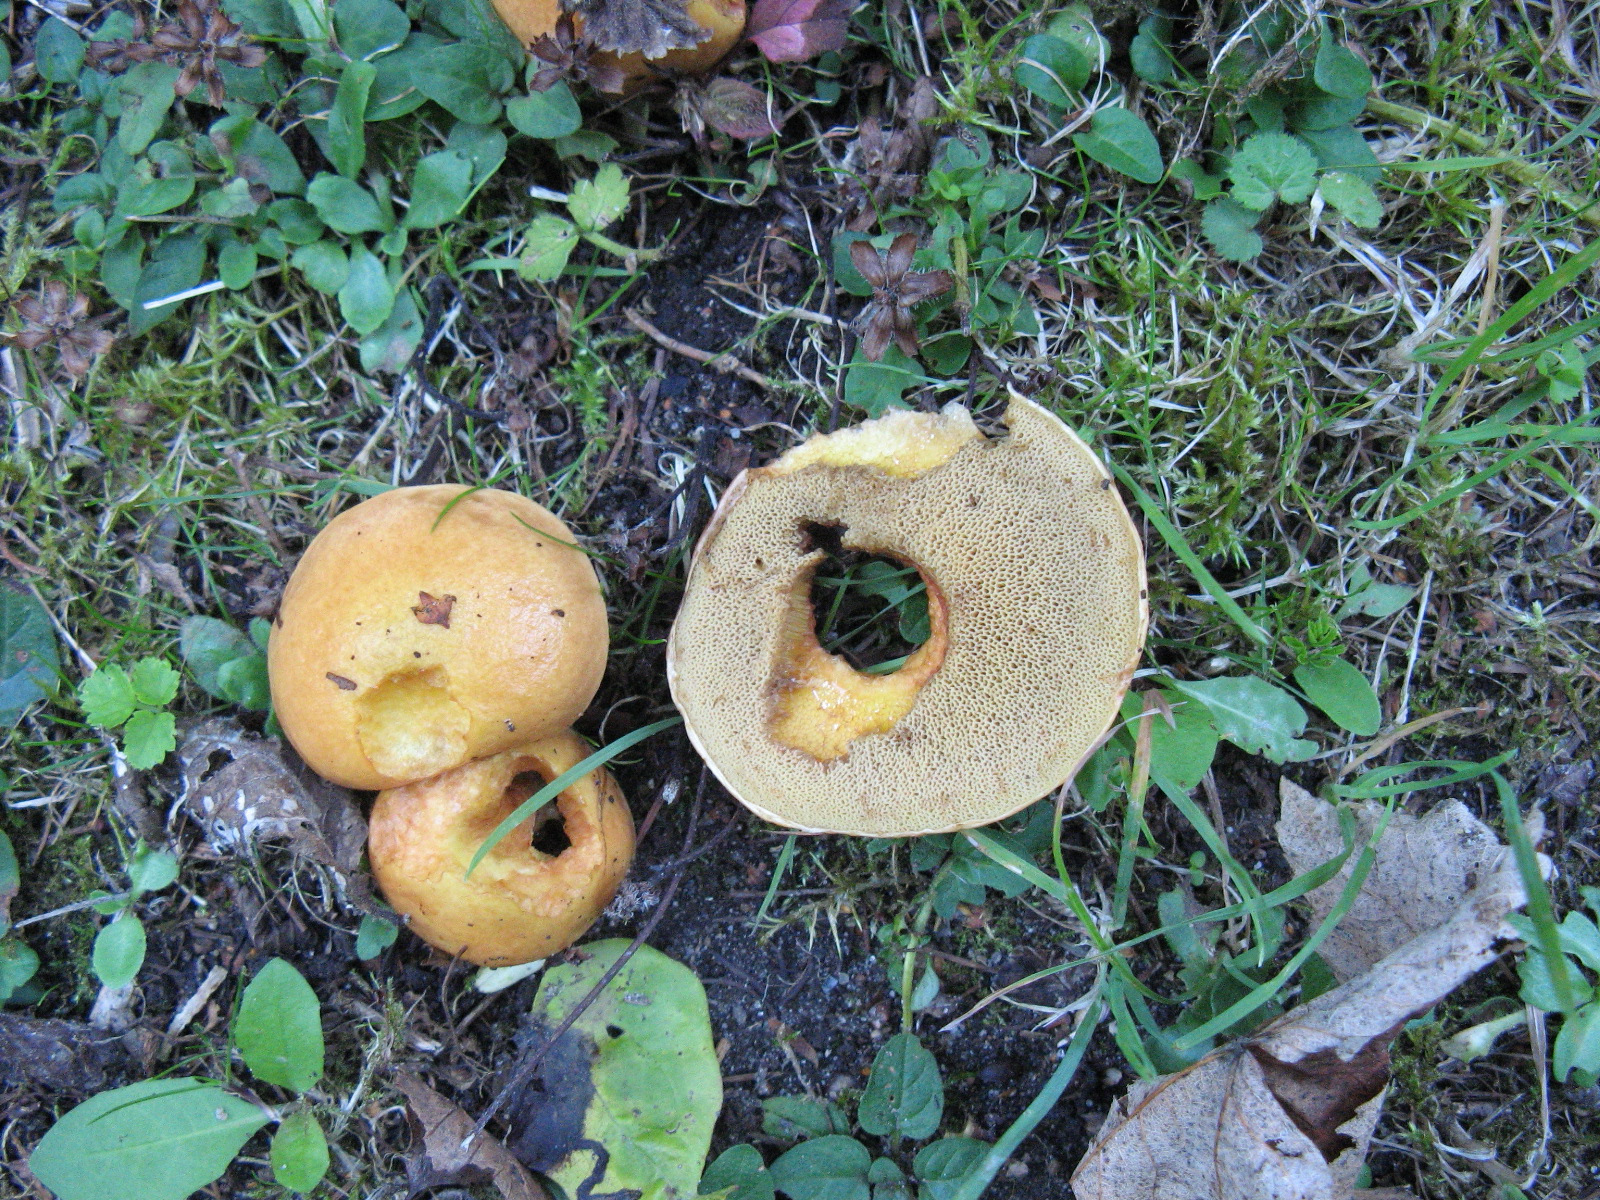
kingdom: Fungi
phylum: Basidiomycota
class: Agaricomycetes
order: Boletales
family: Suillaceae
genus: Suillus
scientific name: Suillus grevillei
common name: lærke-slimrørhat
